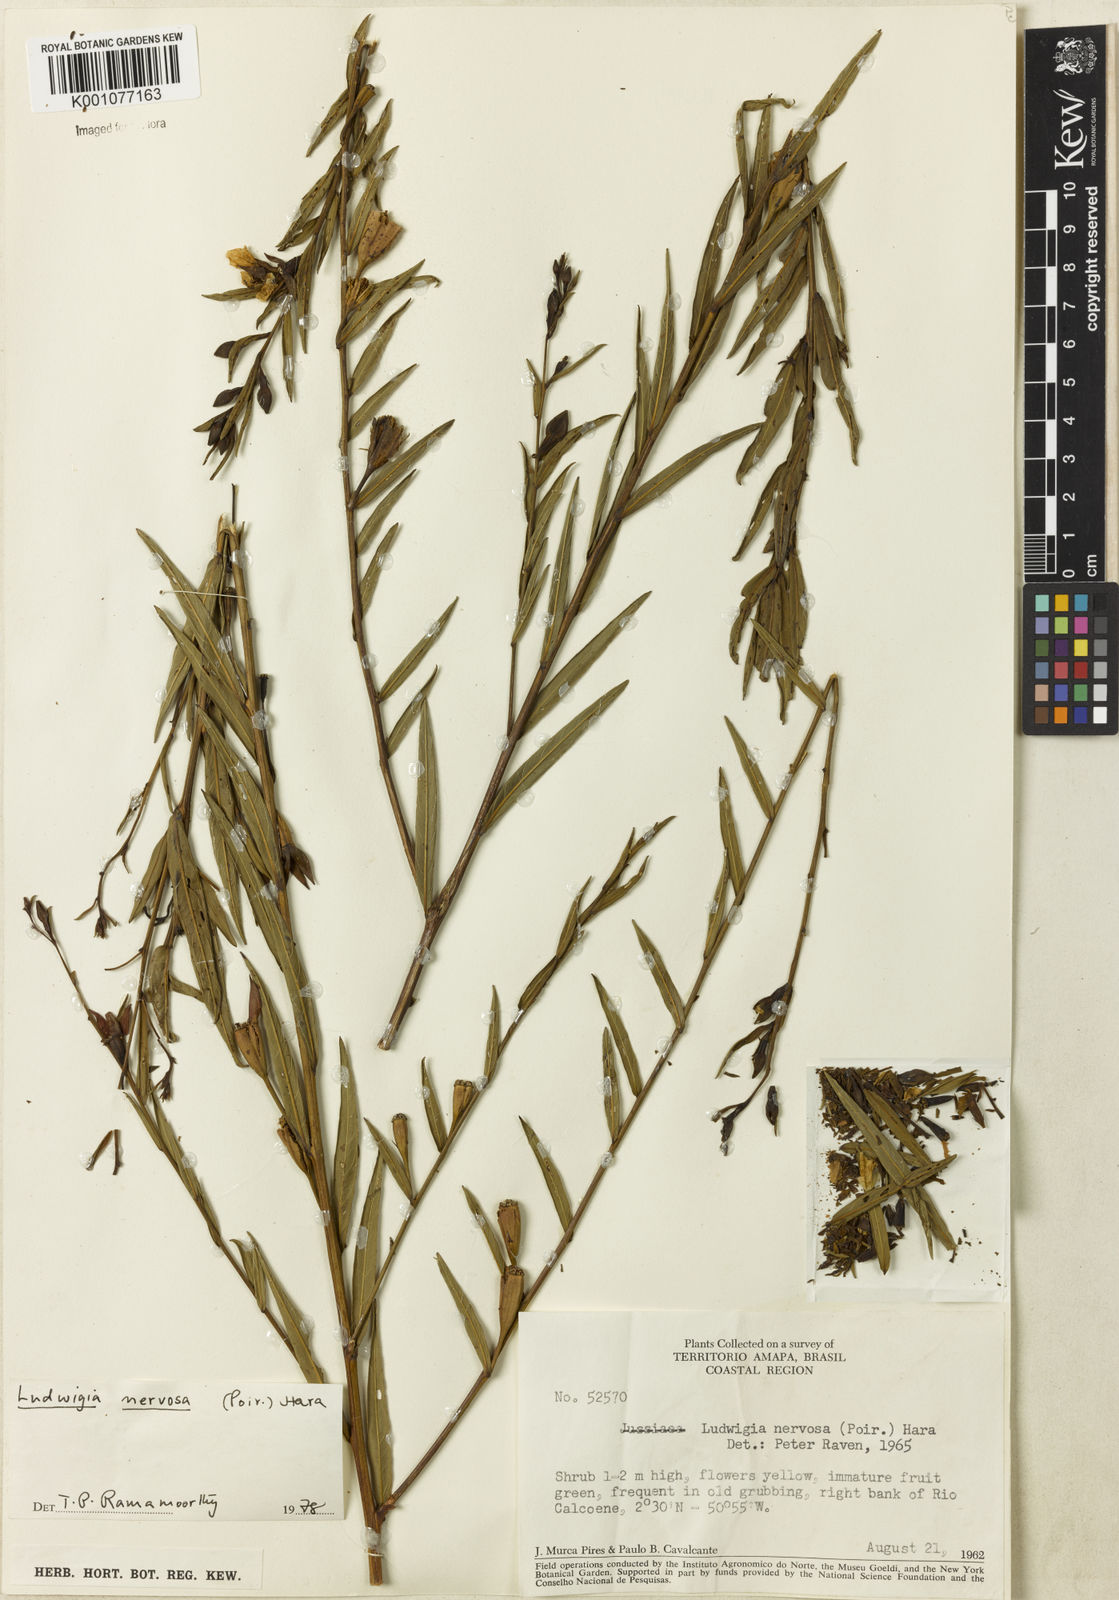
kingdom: Plantae
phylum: Tracheophyta
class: Magnoliopsida
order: Myrtales
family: Onagraceae
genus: Ludwigia
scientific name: Ludwigia nervosa
